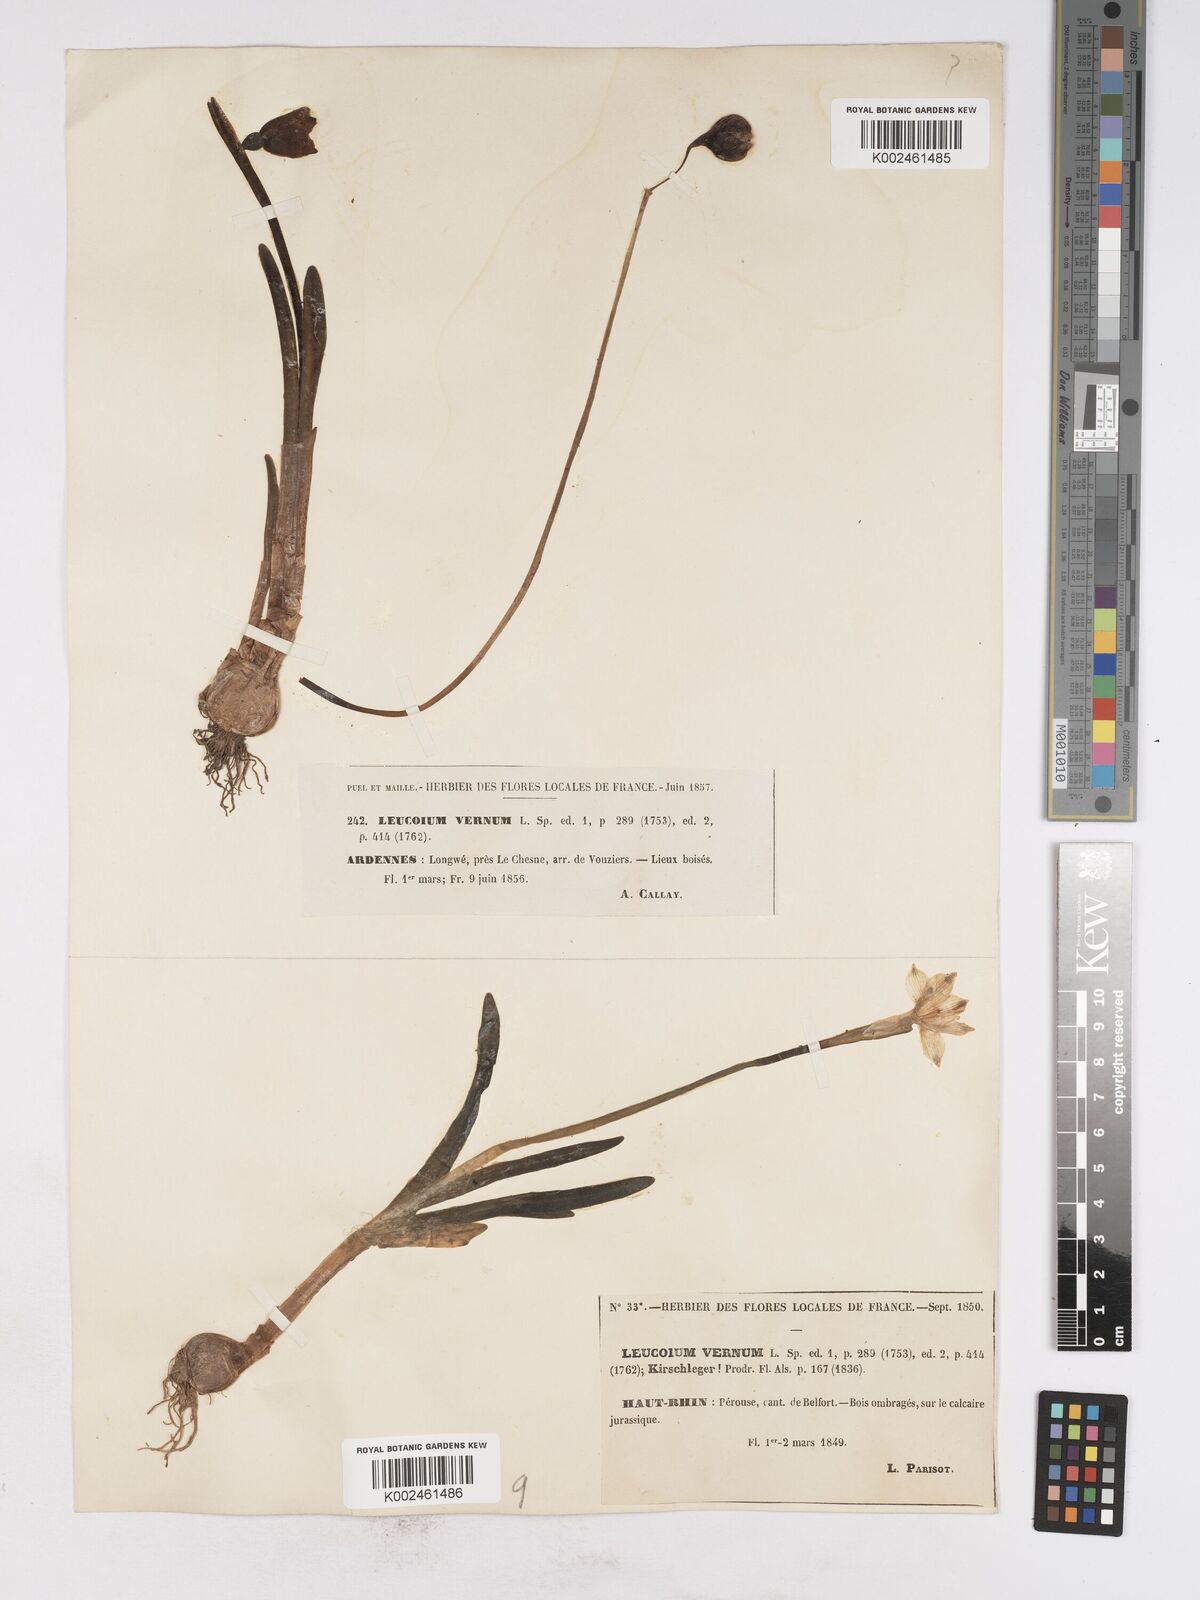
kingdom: Plantae
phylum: Tracheophyta
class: Liliopsida
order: Asparagales
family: Amaryllidaceae
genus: Leucojum
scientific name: Leucojum vernum
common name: Spring snowflake
